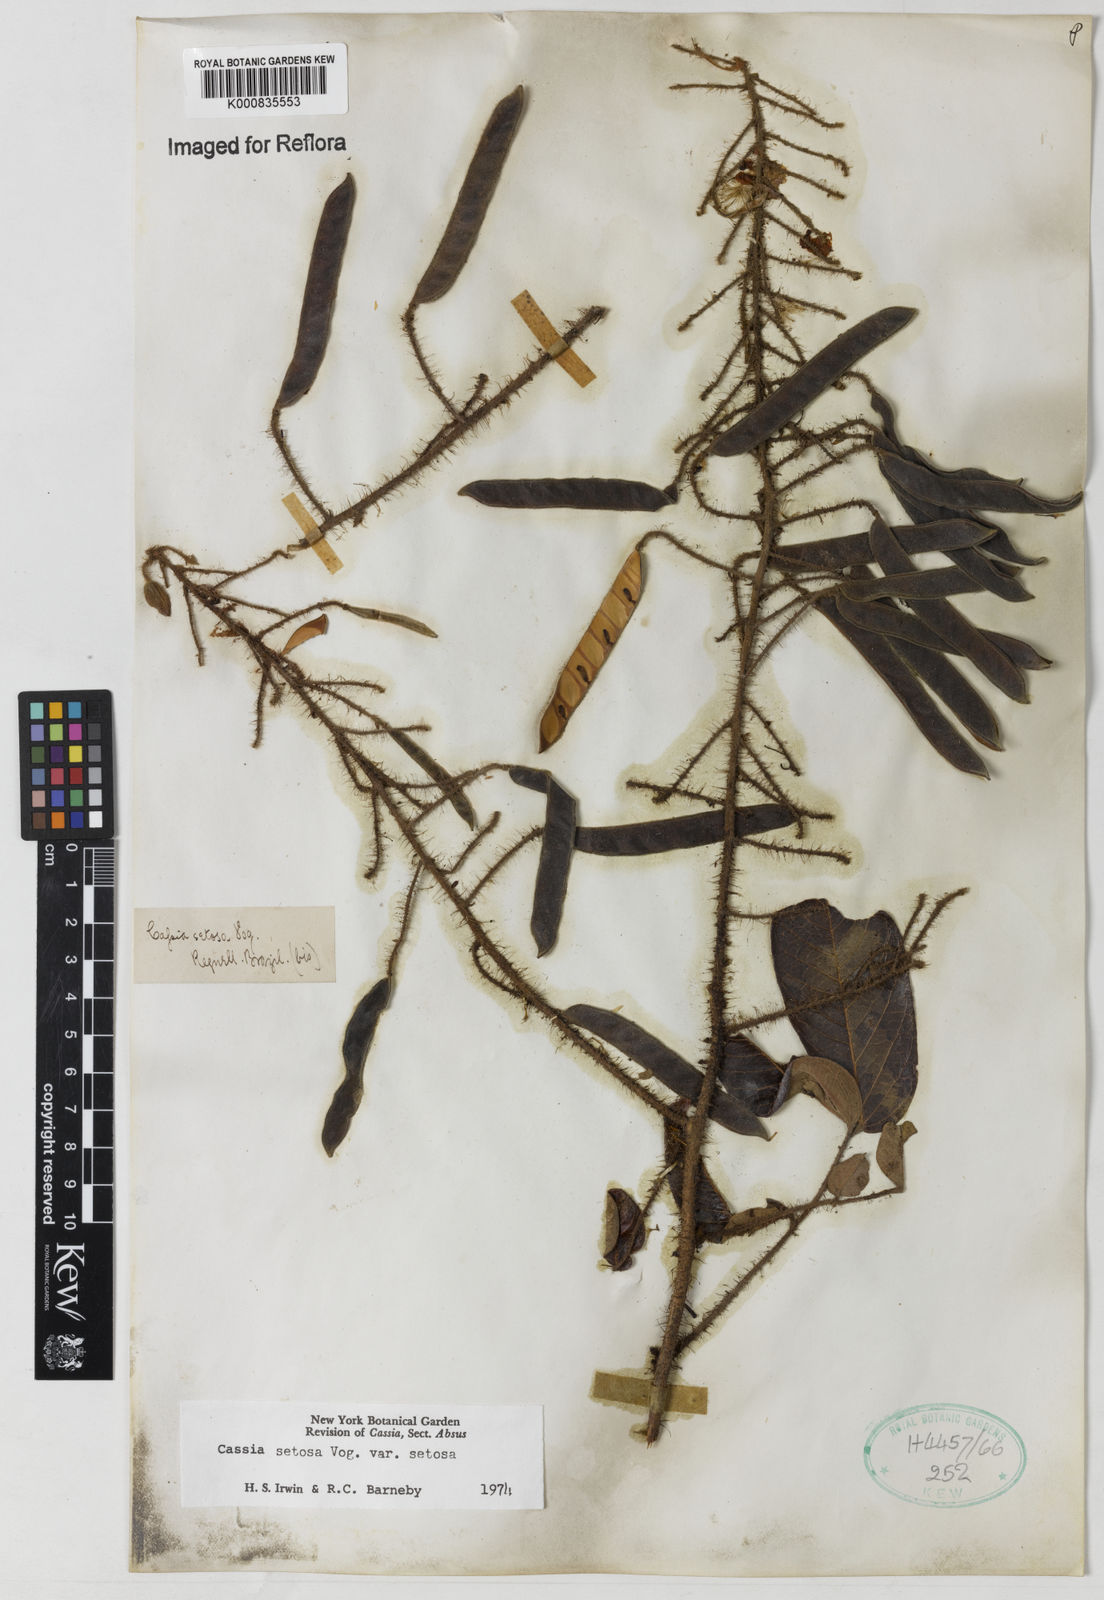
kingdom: Plantae
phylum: Tracheophyta
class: Magnoliopsida
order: Fabales
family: Fabaceae
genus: Chamaecrista
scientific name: Chamaecrista setosa
